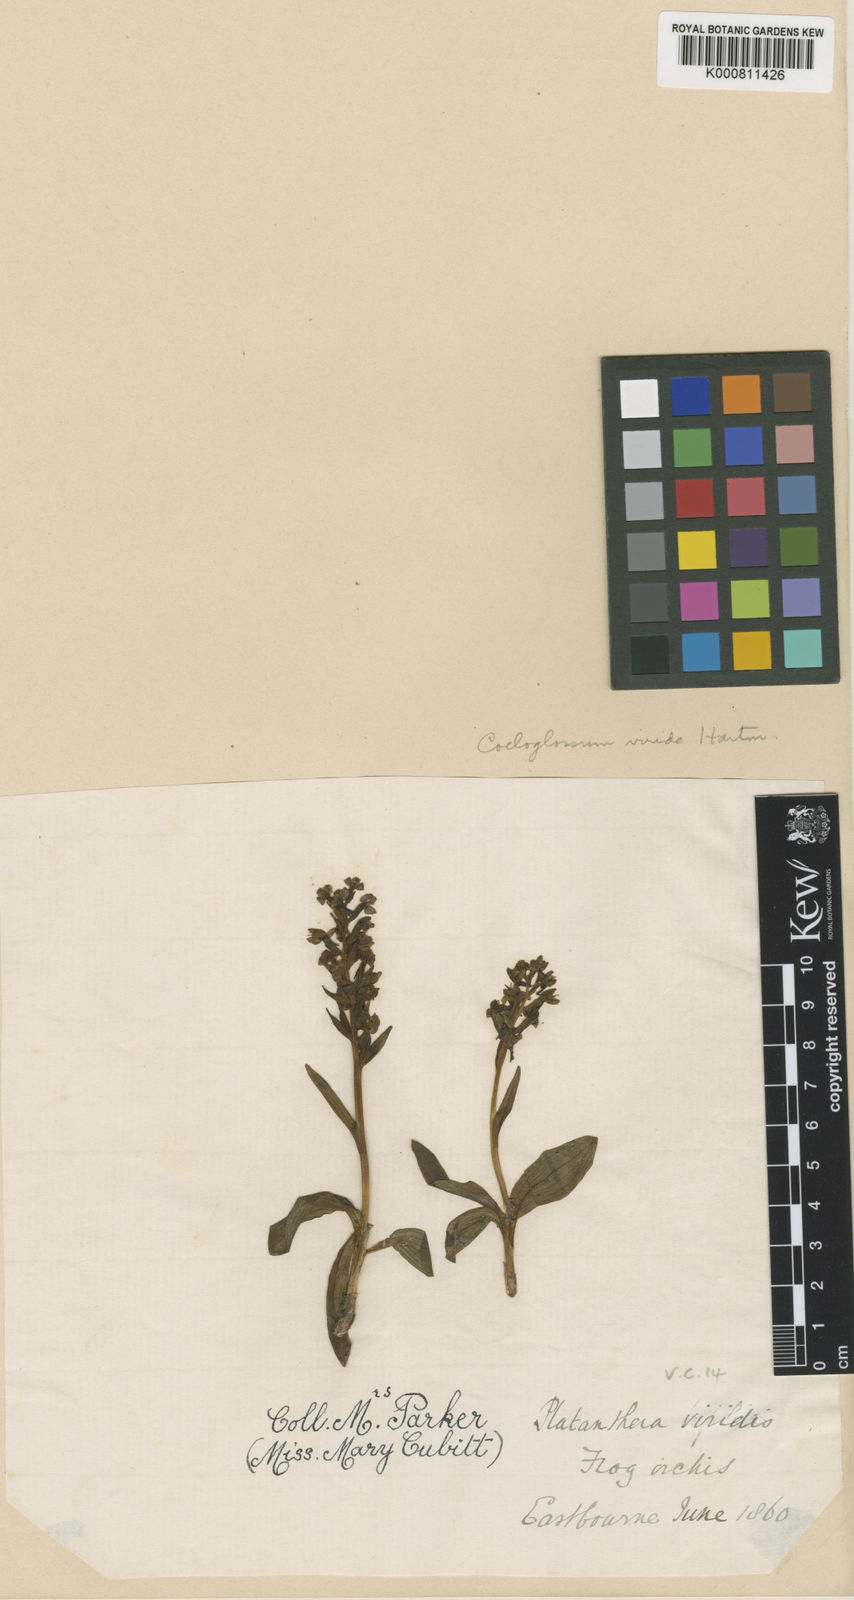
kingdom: Plantae
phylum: Tracheophyta
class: Liliopsida
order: Asparagales
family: Orchidaceae
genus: Dactylorhiza
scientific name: Dactylorhiza viridis
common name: Longbract frog orchid
